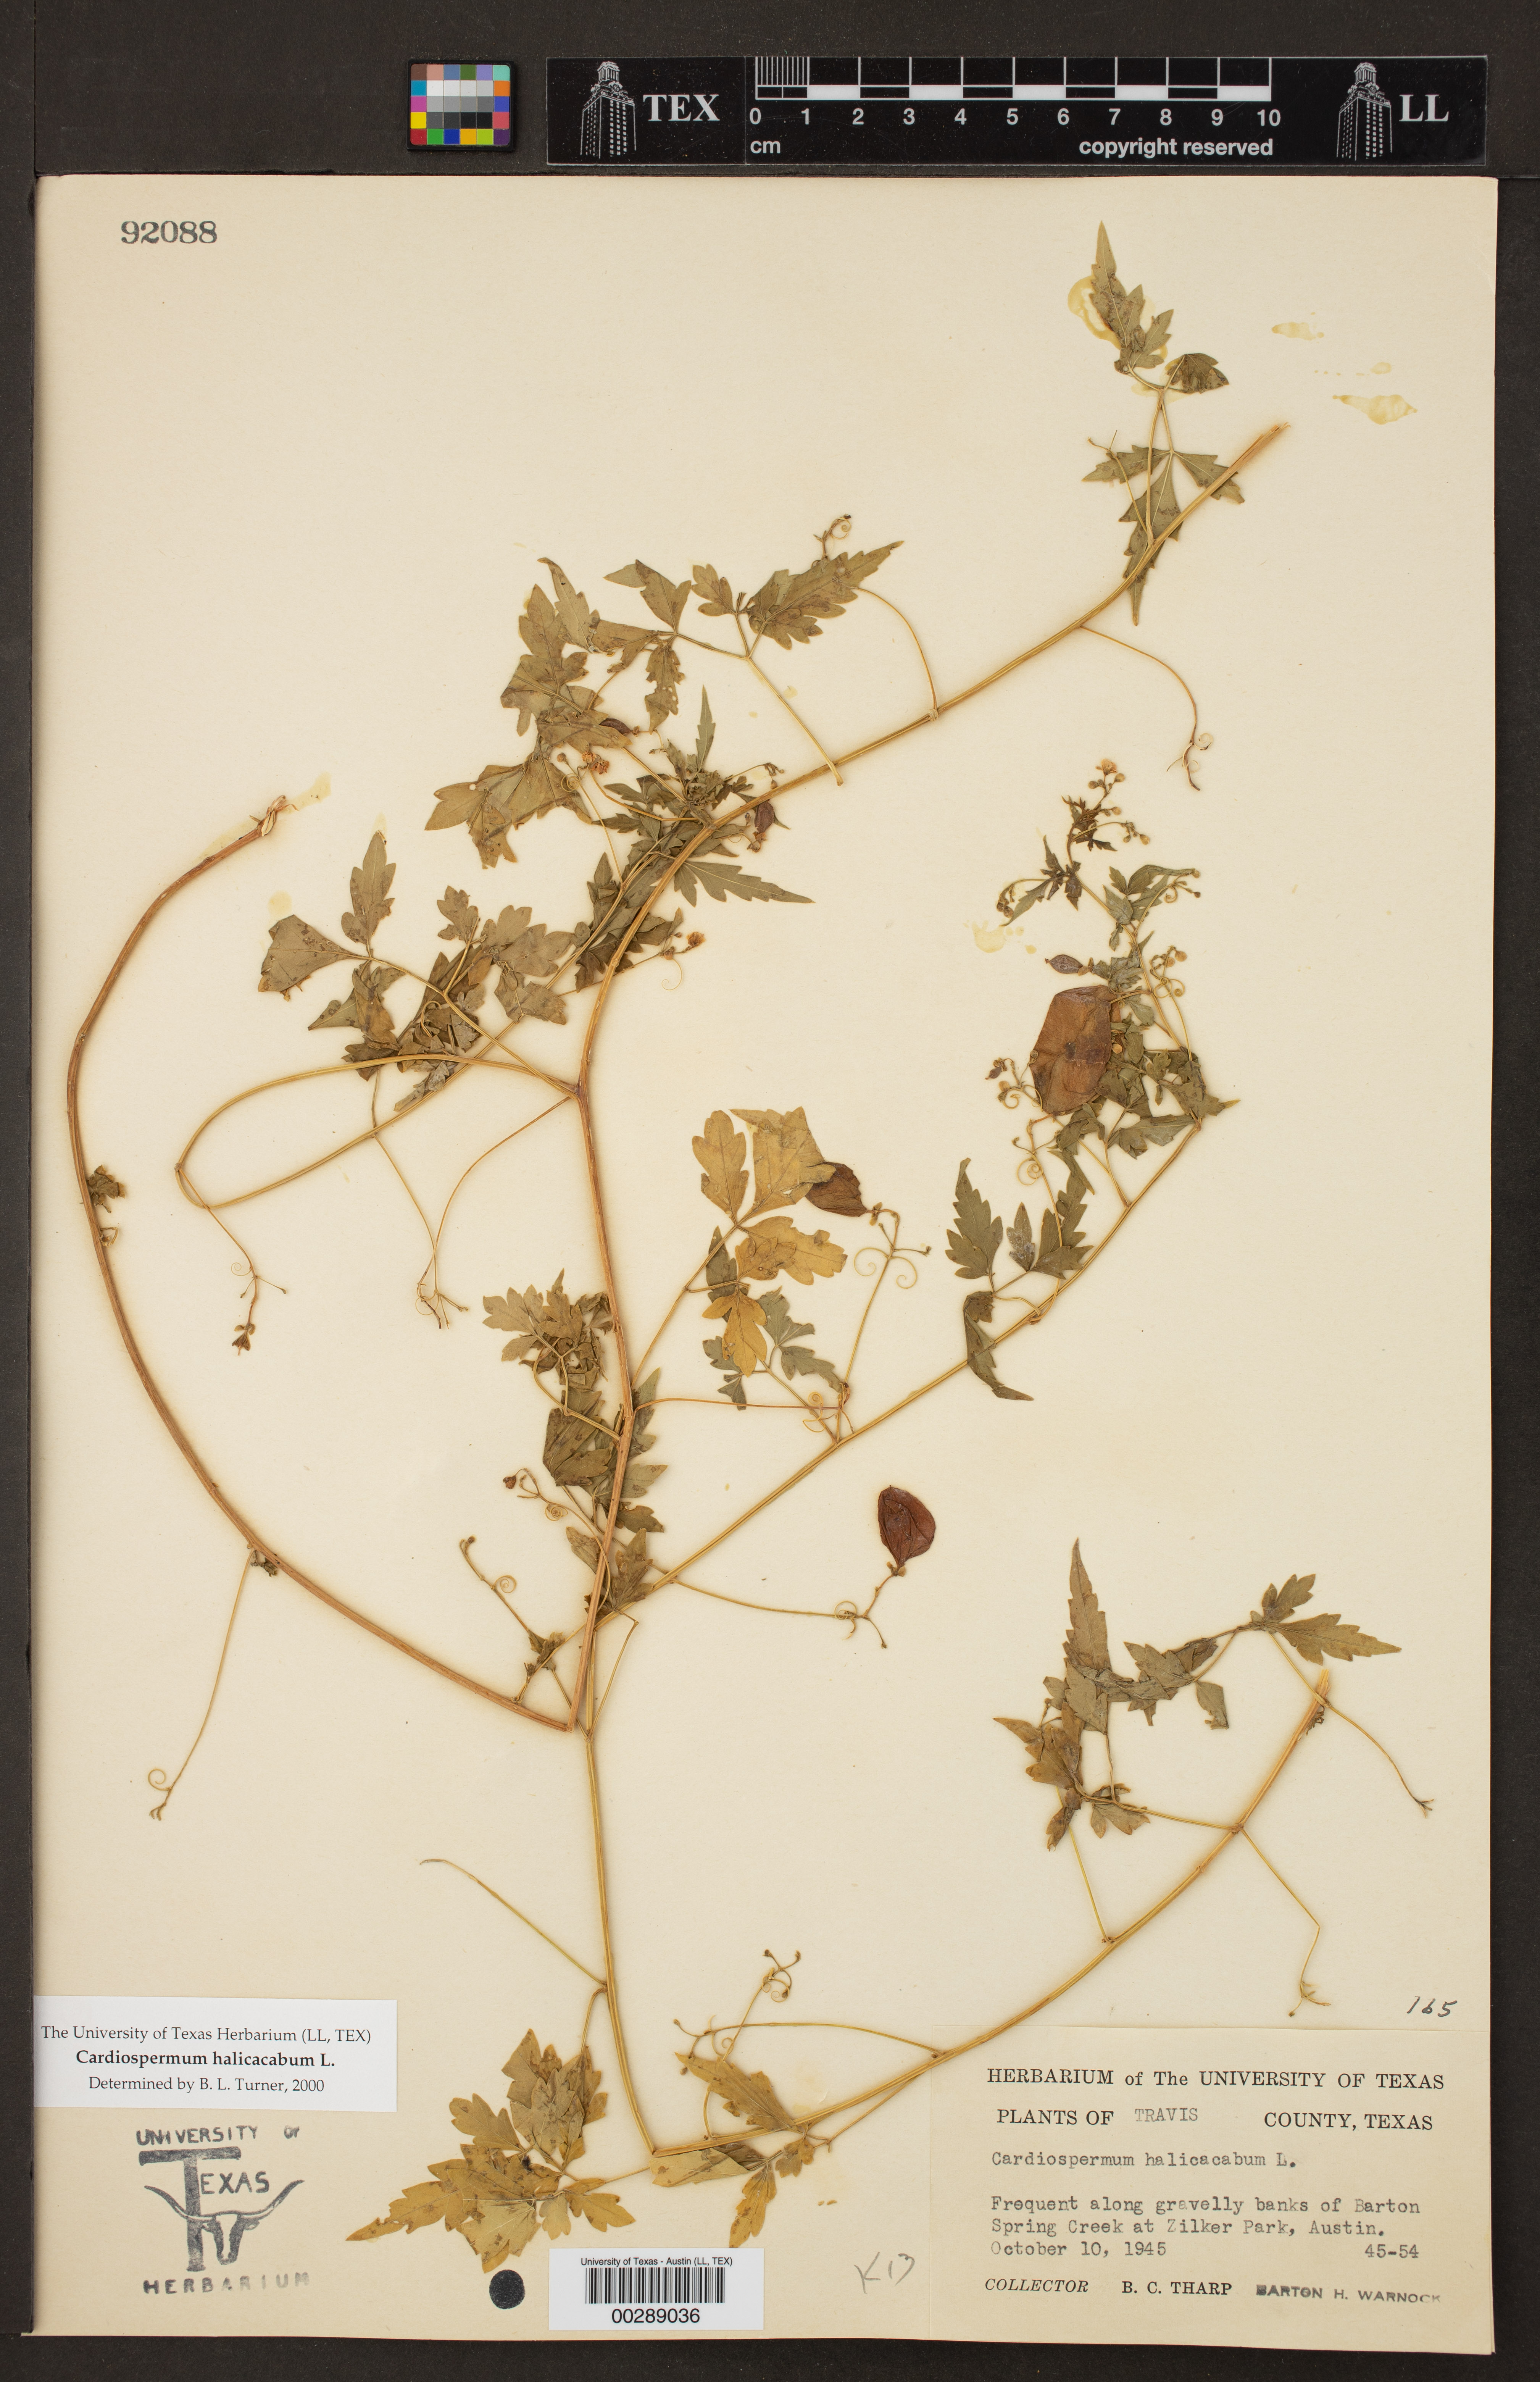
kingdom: Plantae
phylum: Tracheophyta
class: Magnoliopsida
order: Sapindales
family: Sapindaceae
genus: Cardiospermum
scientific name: Cardiospermum halicacabum
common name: Balloon vine
